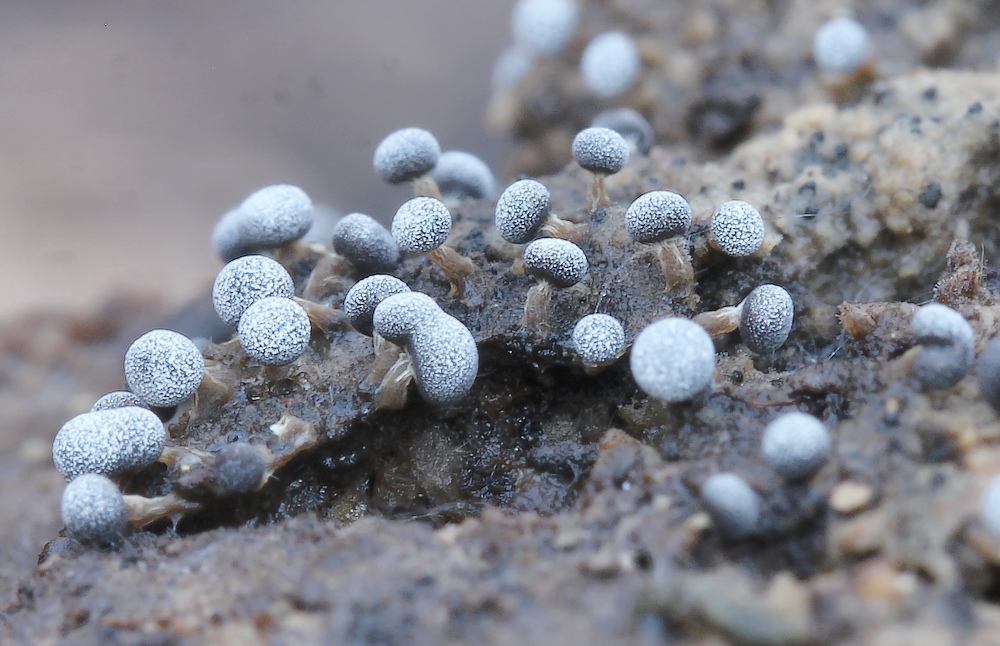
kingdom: Protozoa
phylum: Mycetozoa
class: Myxomycetes
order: Physarales
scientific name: Physarales
